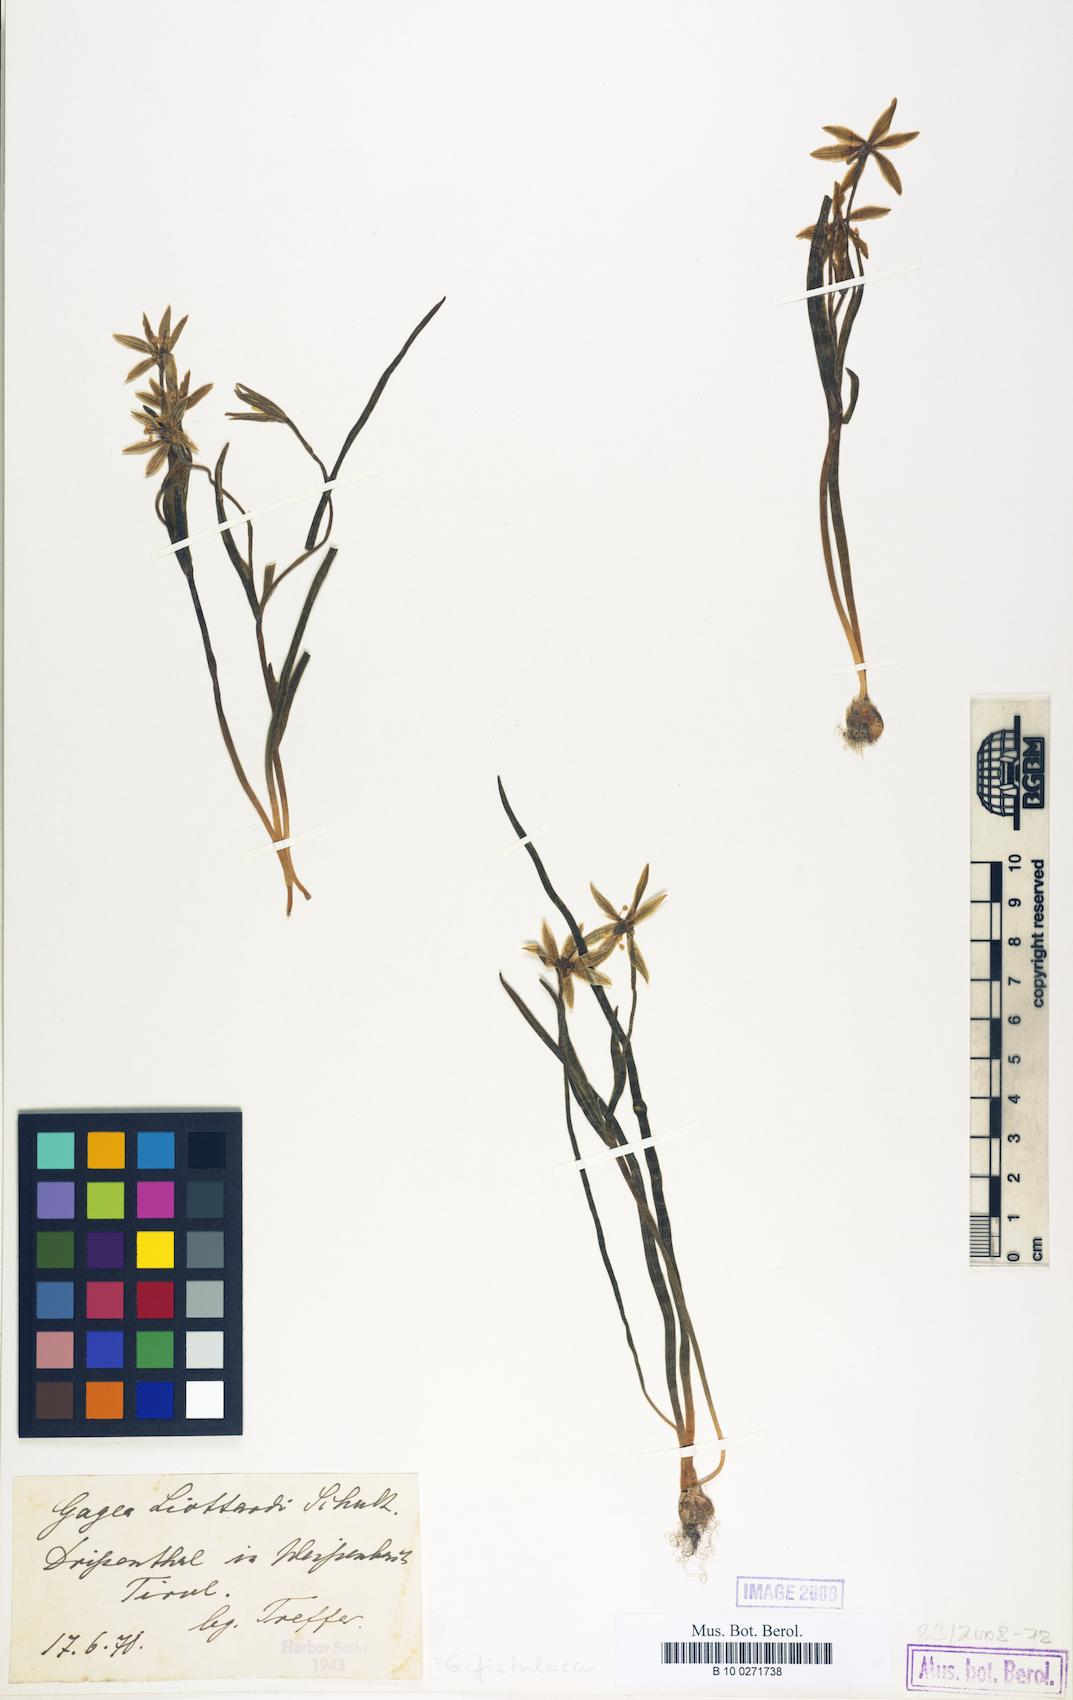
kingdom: Plantae
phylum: Tracheophyta
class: Liliopsida
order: Liliales
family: Liliaceae
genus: Gagea
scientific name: Gagea bohemica
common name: Early star-of-bethlehem
